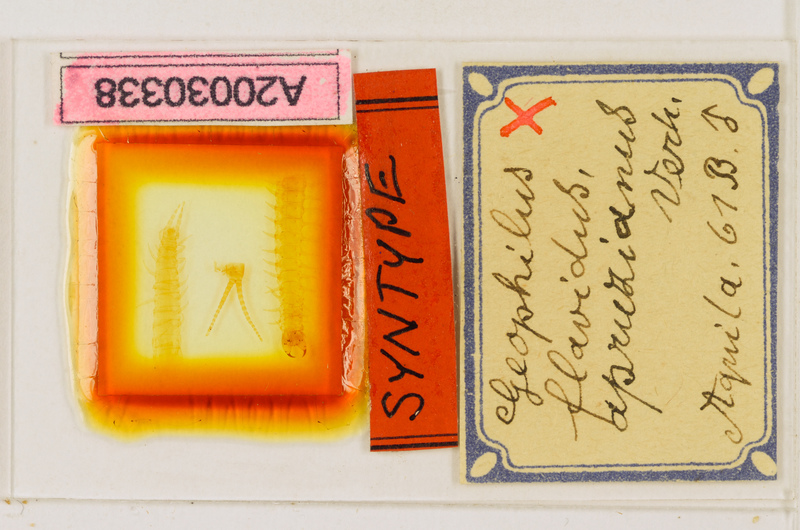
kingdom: Animalia
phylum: Arthropoda
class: Chilopoda
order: Geophilomorpha
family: Geophilidae
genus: Clinopodes
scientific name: Clinopodes flavidus
